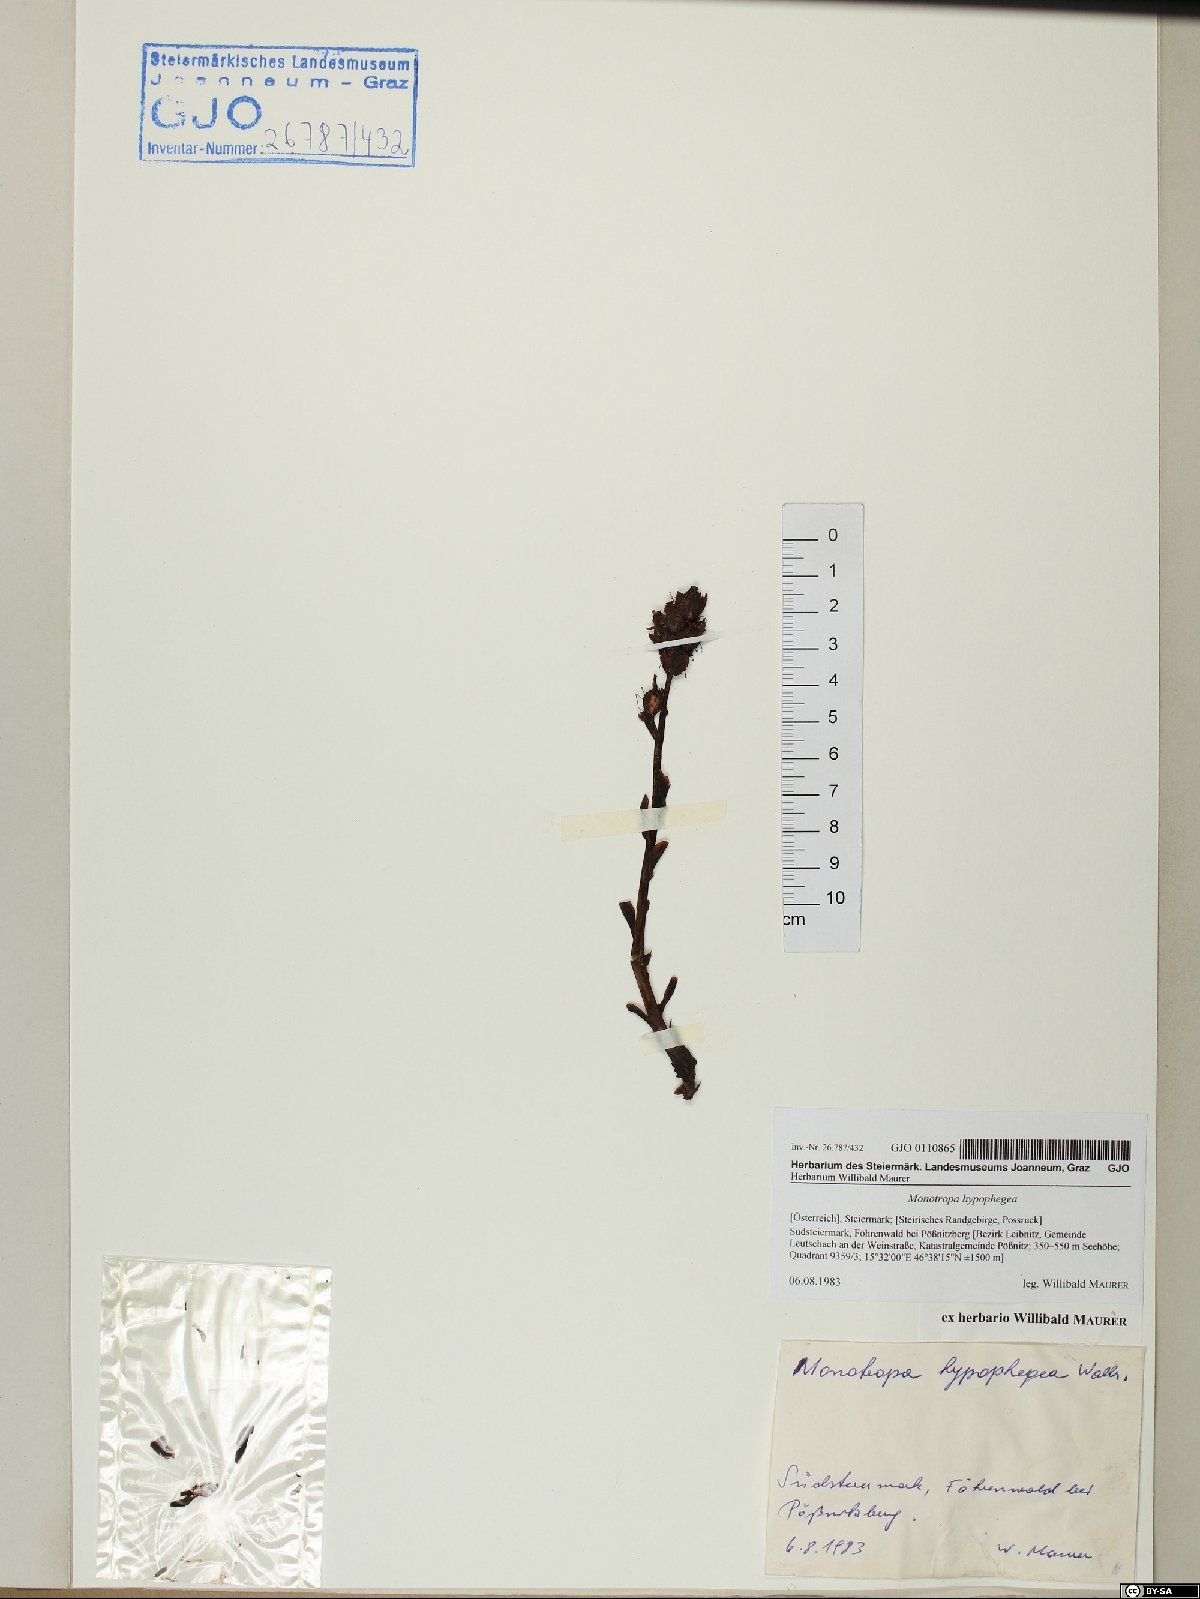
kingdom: Plantae
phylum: Tracheophyta
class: Magnoliopsida
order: Ericales
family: Ericaceae
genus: Hypopitys
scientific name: Hypopitys hypophegea
